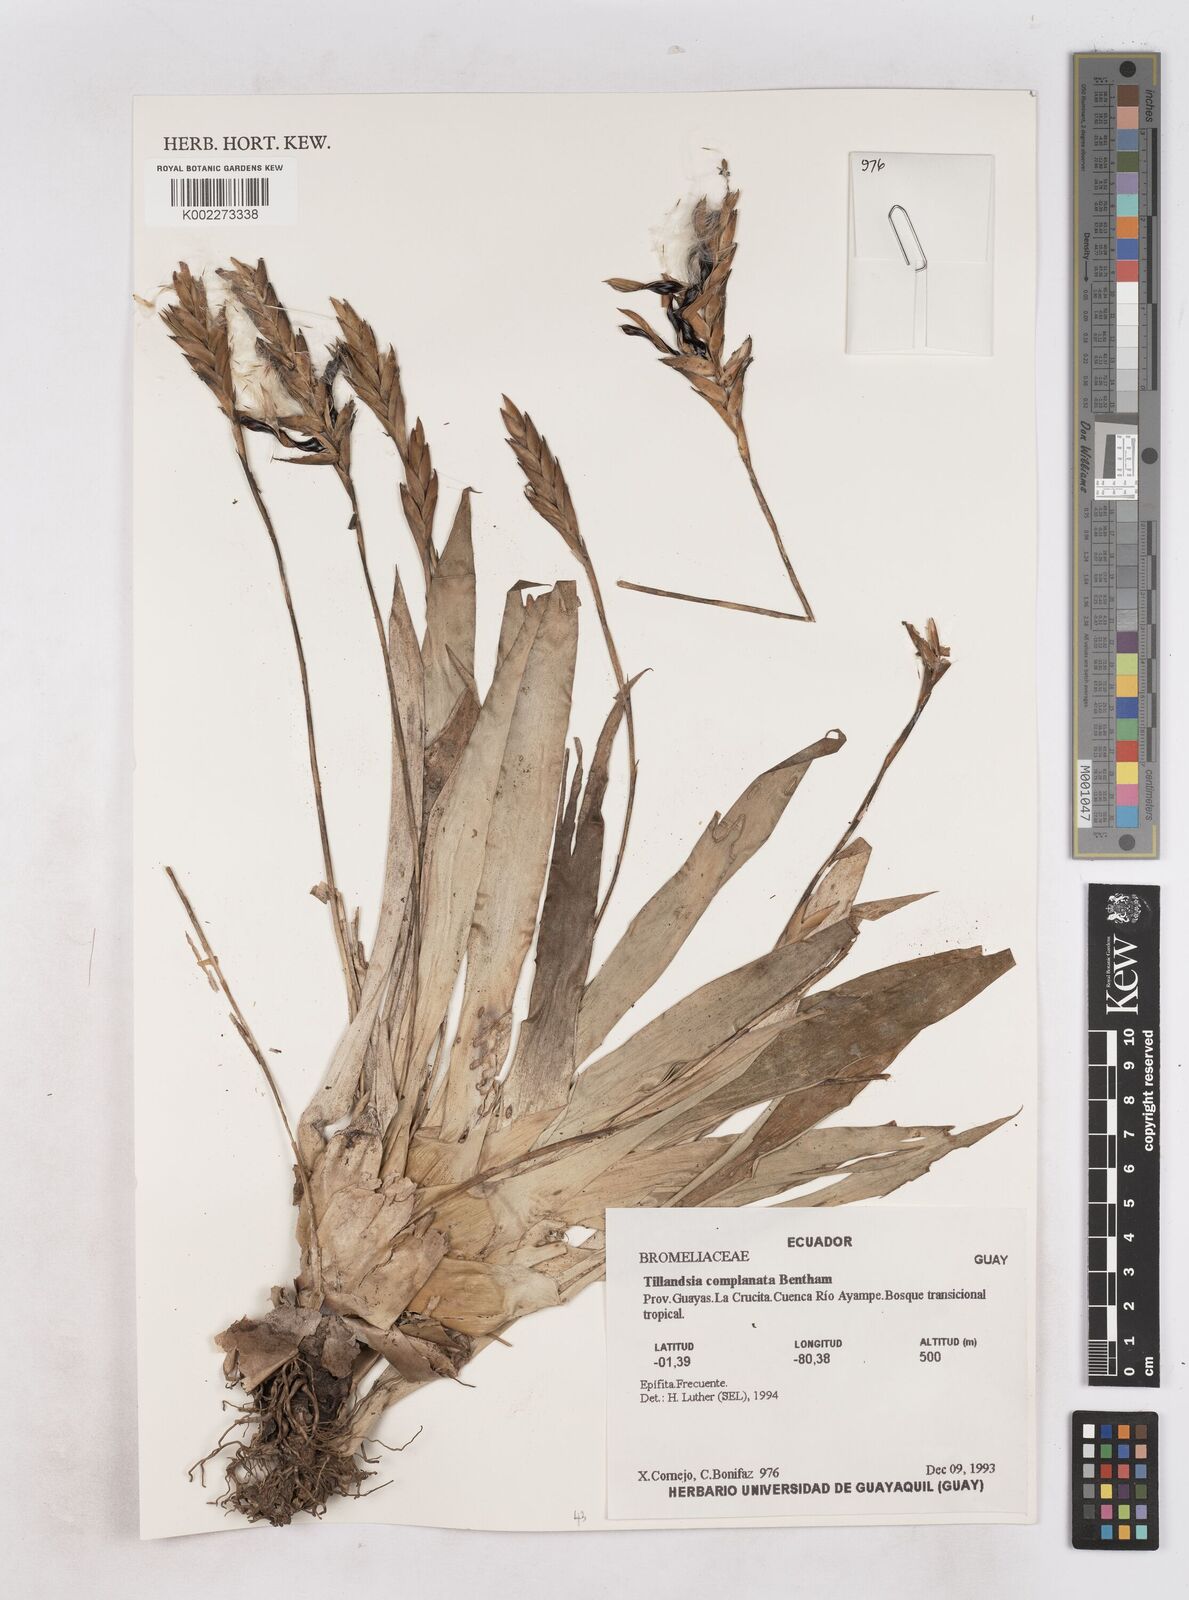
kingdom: Plantae
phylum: Tracheophyta
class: Liliopsida
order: Poales
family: Bromeliaceae
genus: Tillandsia
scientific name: Tillandsia complanata
